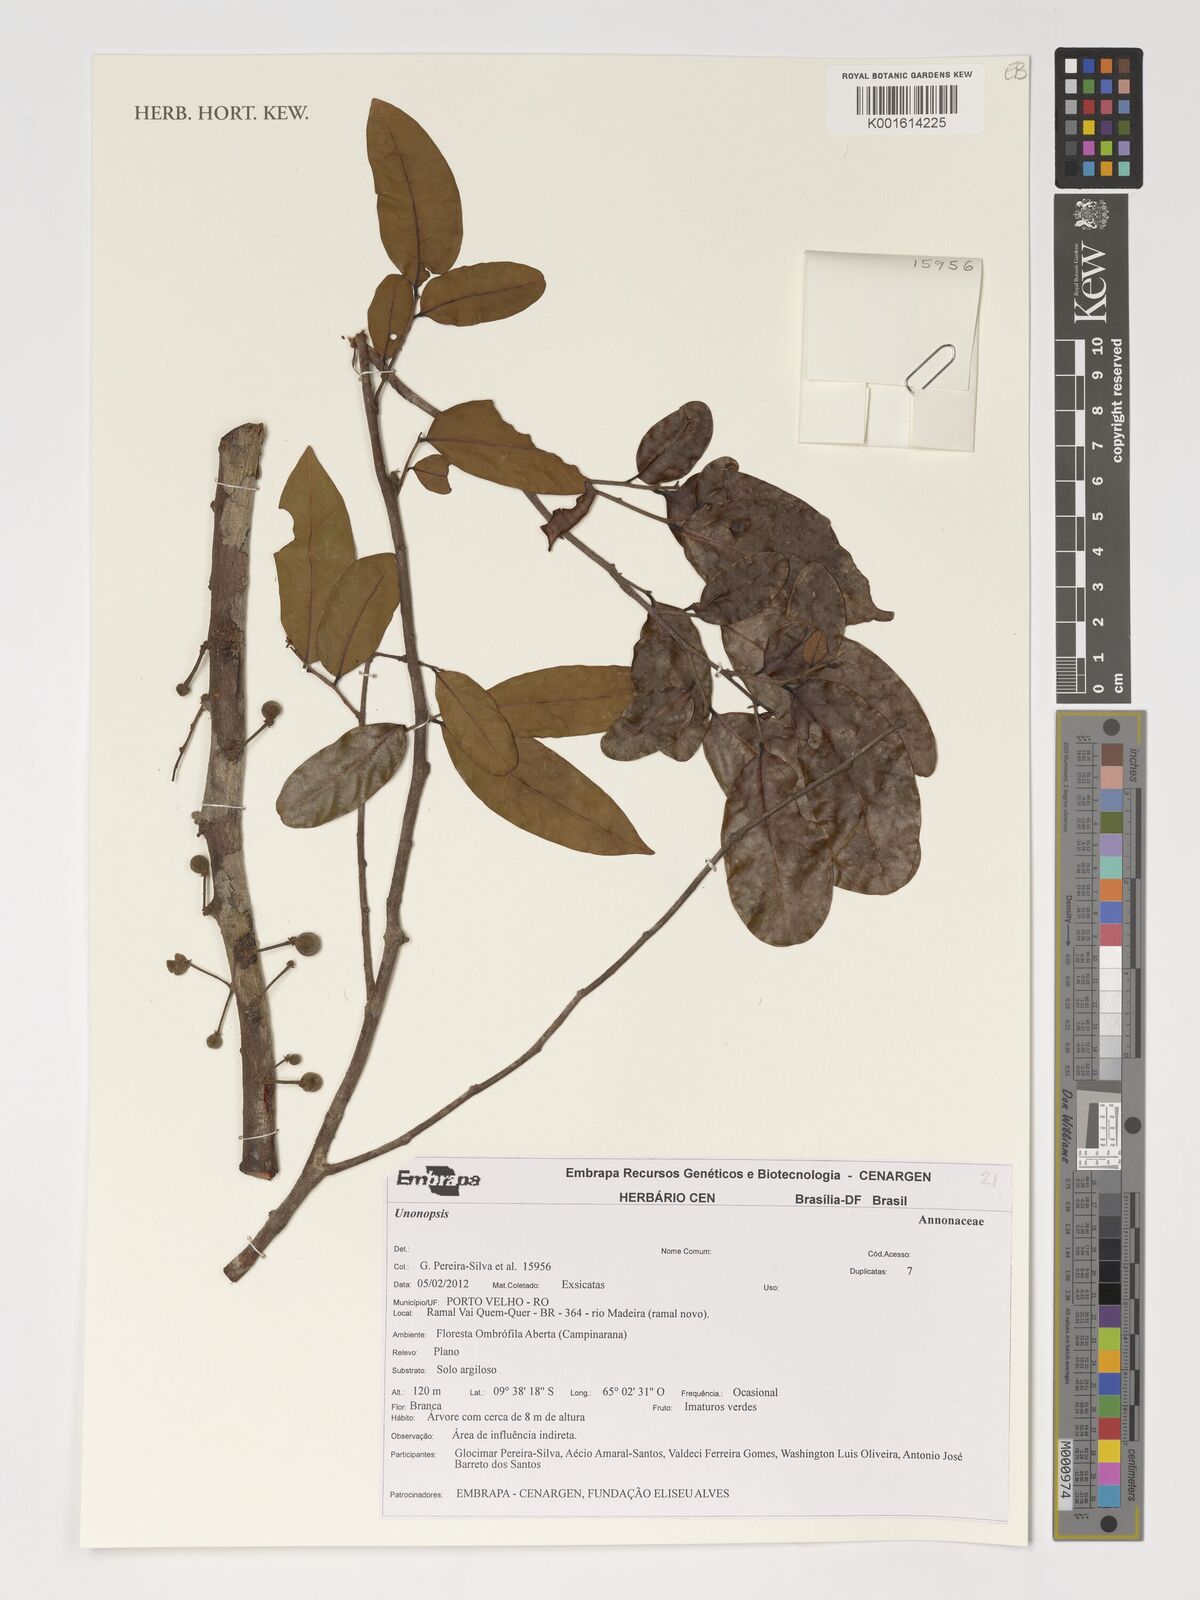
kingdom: Plantae
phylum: Tracheophyta
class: Magnoliopsida
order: Magnoliales
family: Annonaceae
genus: Unonopsis
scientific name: Unonopsis
